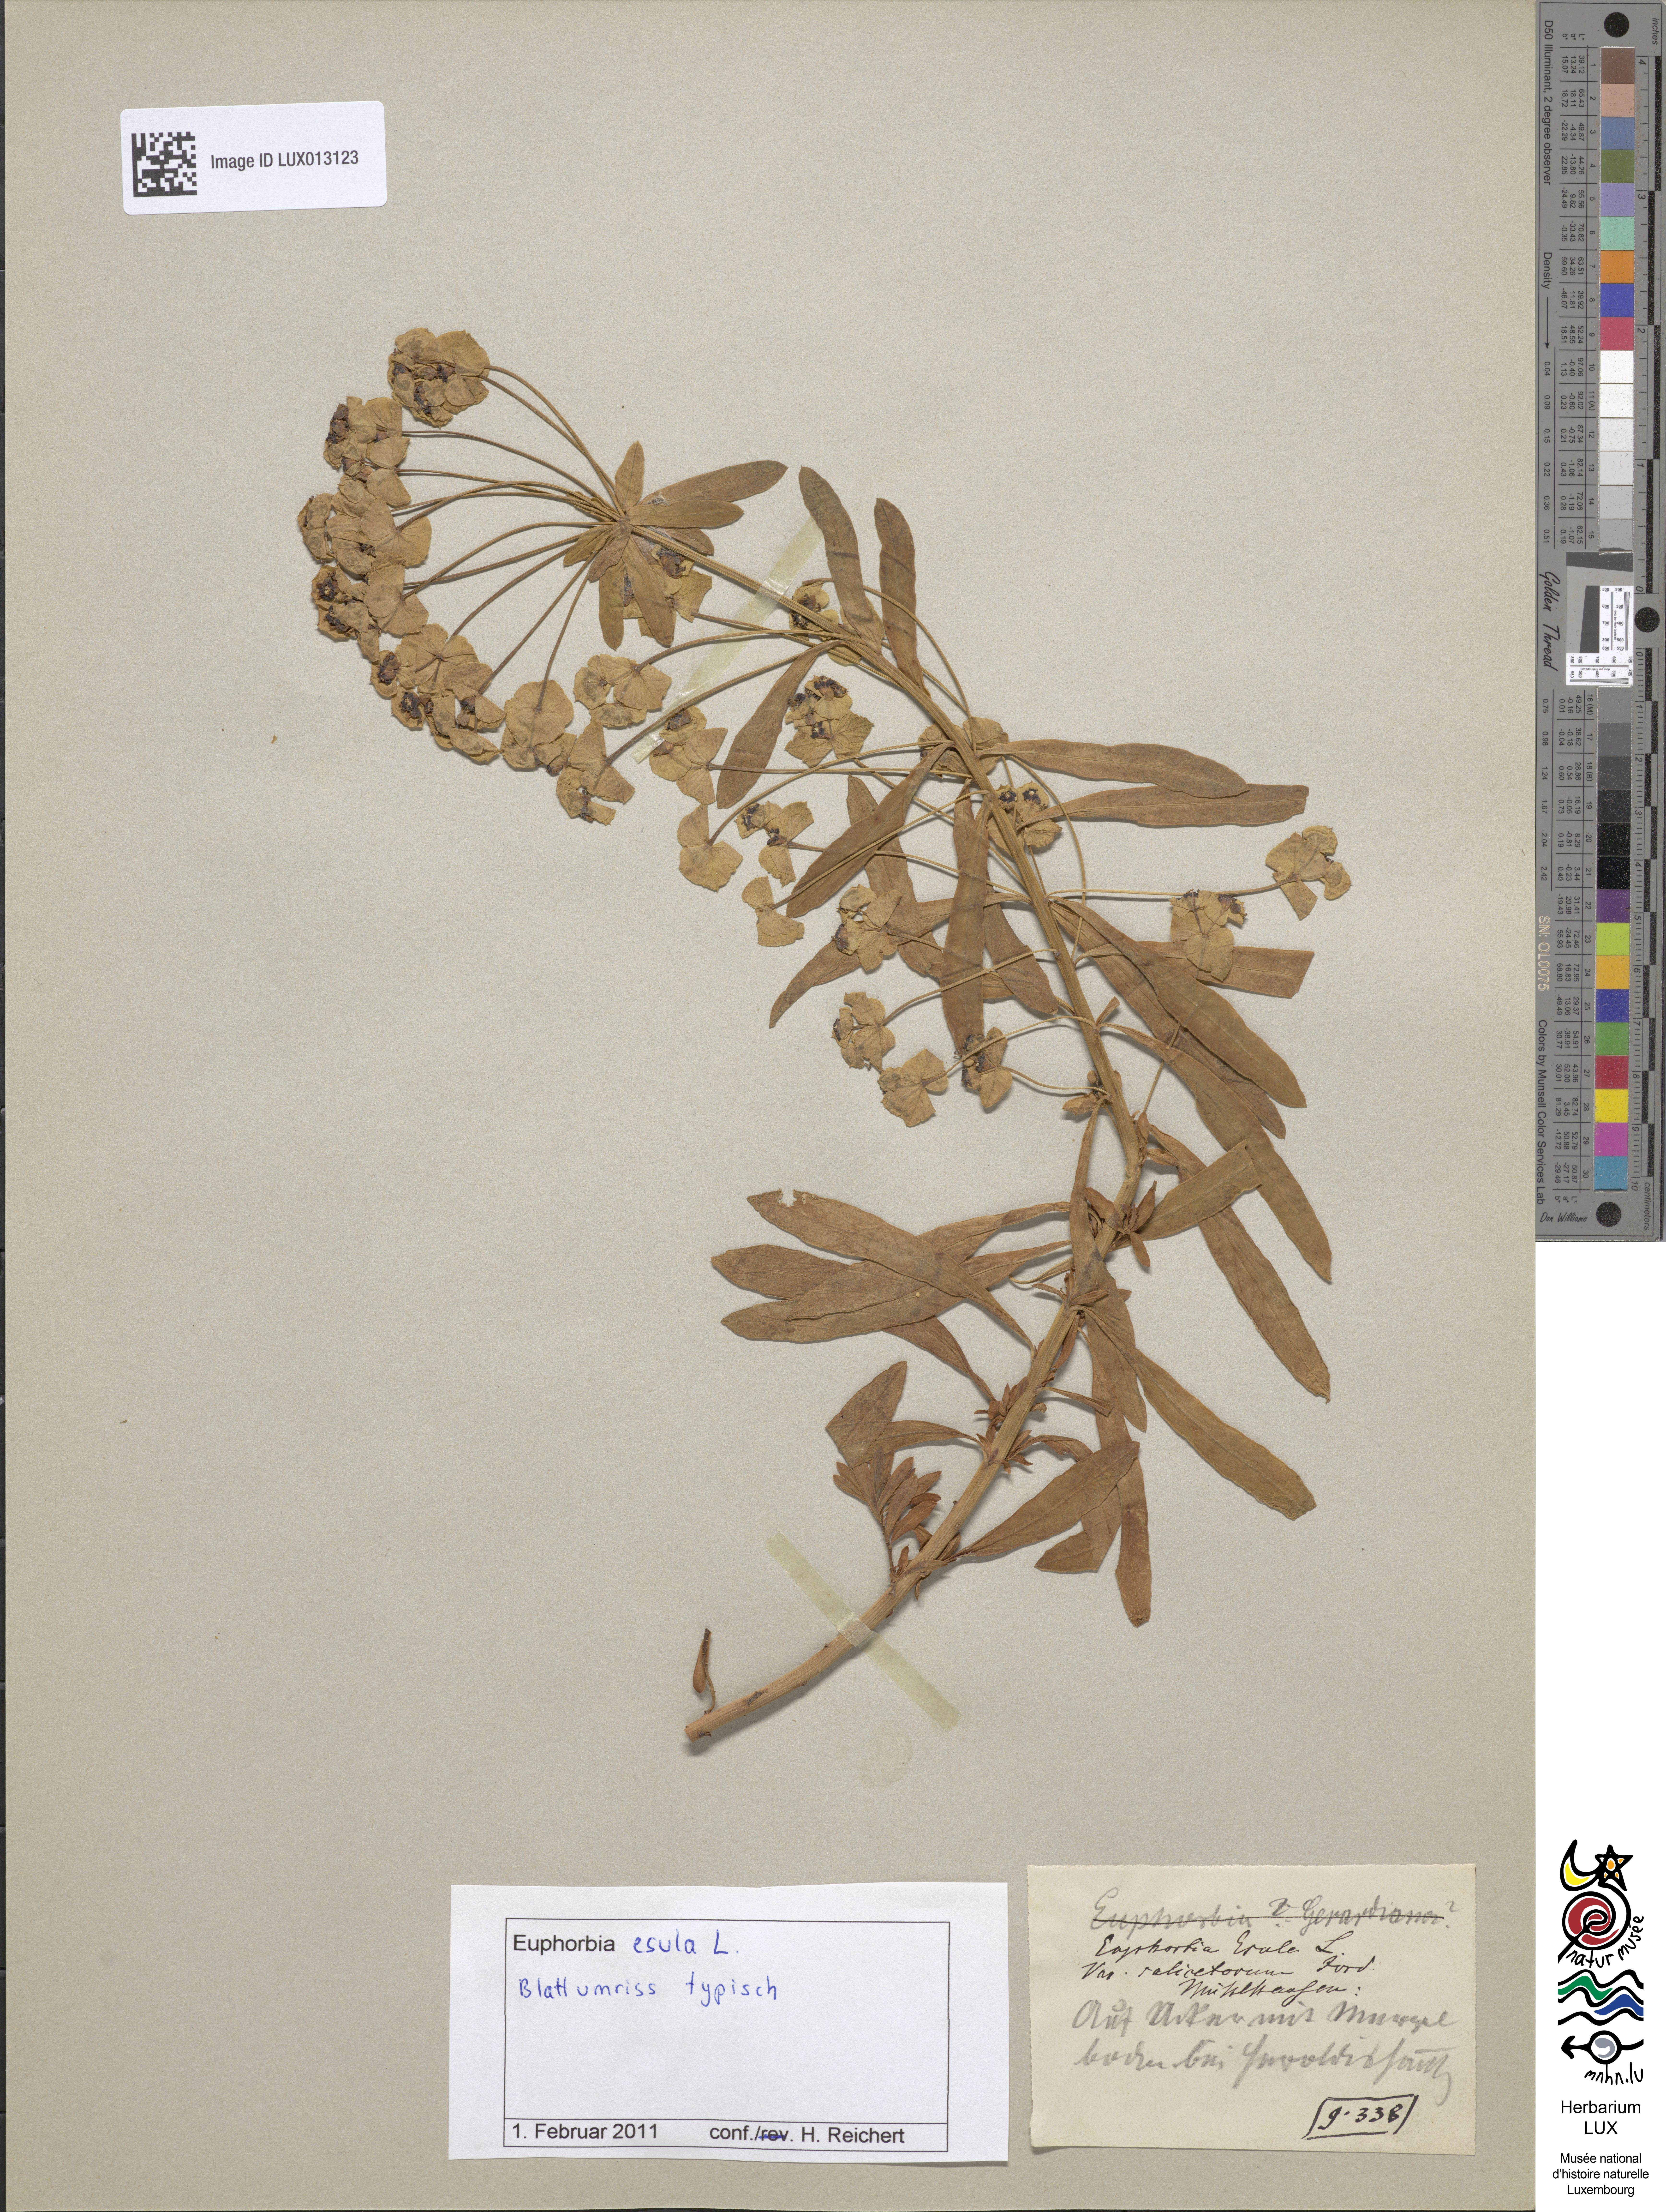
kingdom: Plantae
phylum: Tracheophyta
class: Magnoliopsida
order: Malpighiales
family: Euphorbiaceae
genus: Euphorbia
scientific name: Euphorbia esula
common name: Leafy spurge
